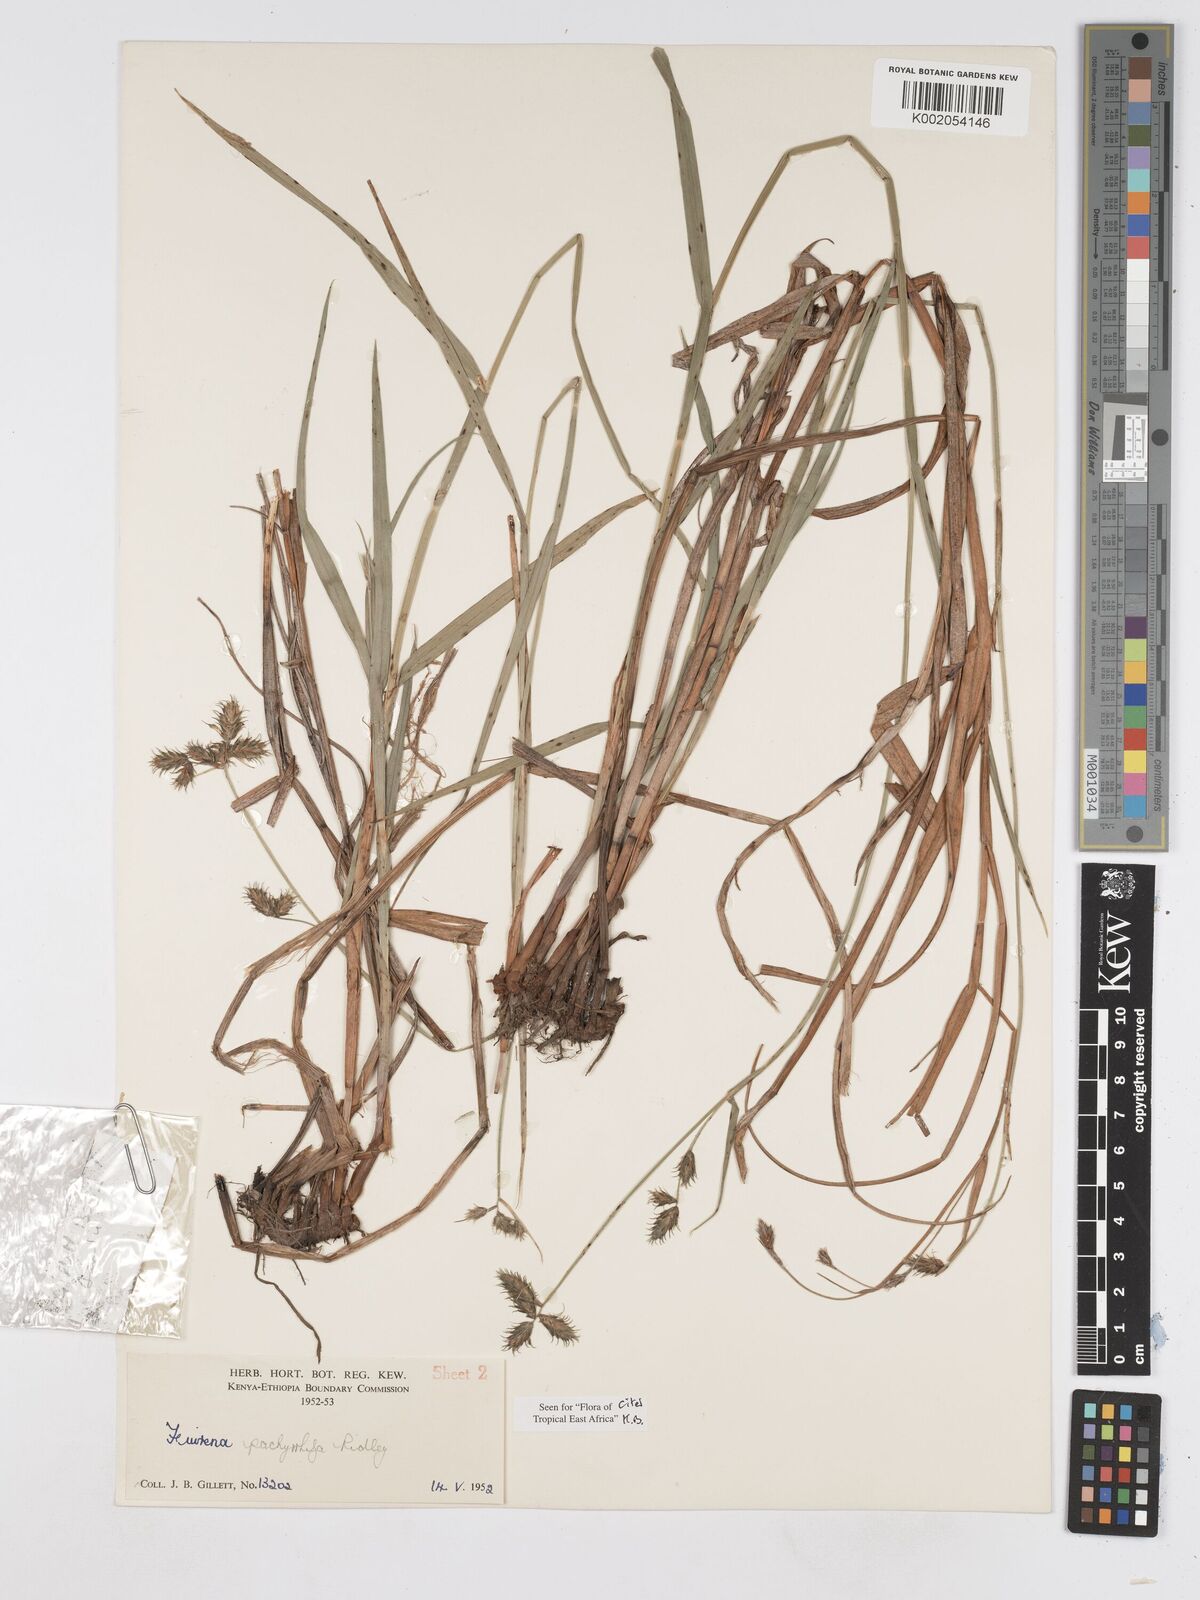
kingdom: Plantae
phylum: Tracheophyta
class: Liliopsida
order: Poales
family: Cyperaceae
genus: Fuirena
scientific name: Fuirena pachyrrhiza
